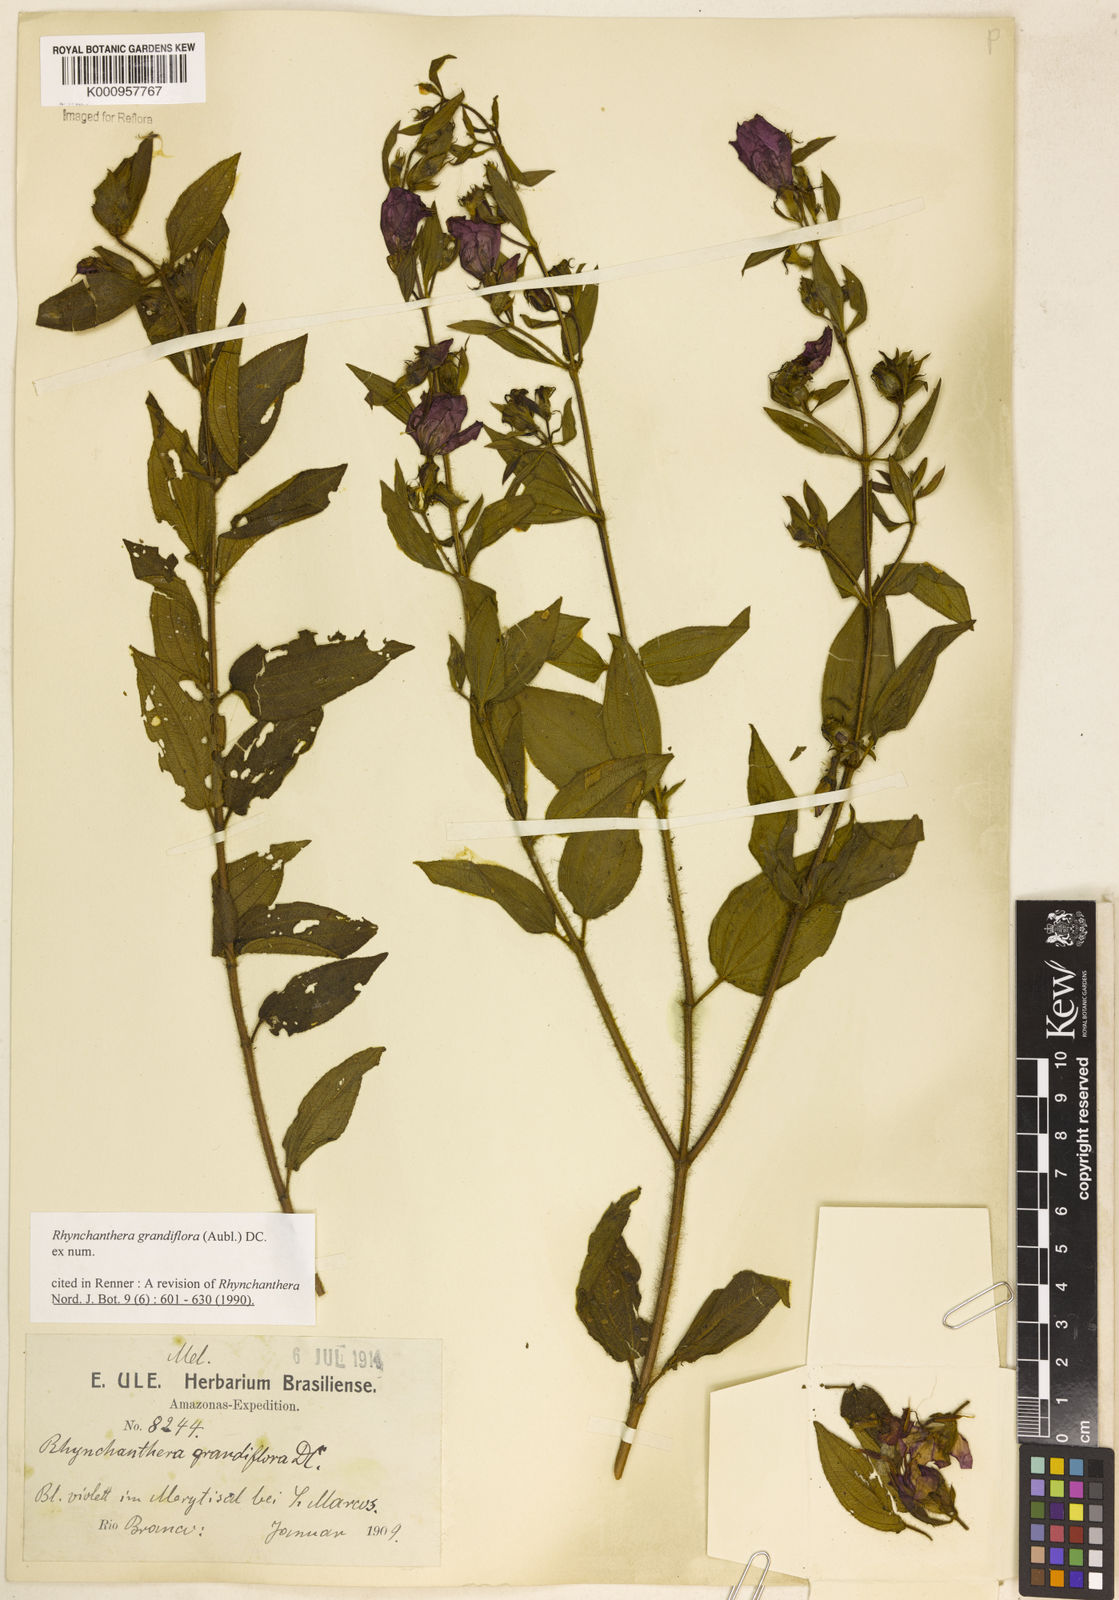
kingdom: Plantae
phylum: Tracheophyta
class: Magnoliopsida
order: Myrtales
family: Melastomataceae
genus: Rhynchanthera
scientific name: Rhynchanthera grandiflora
